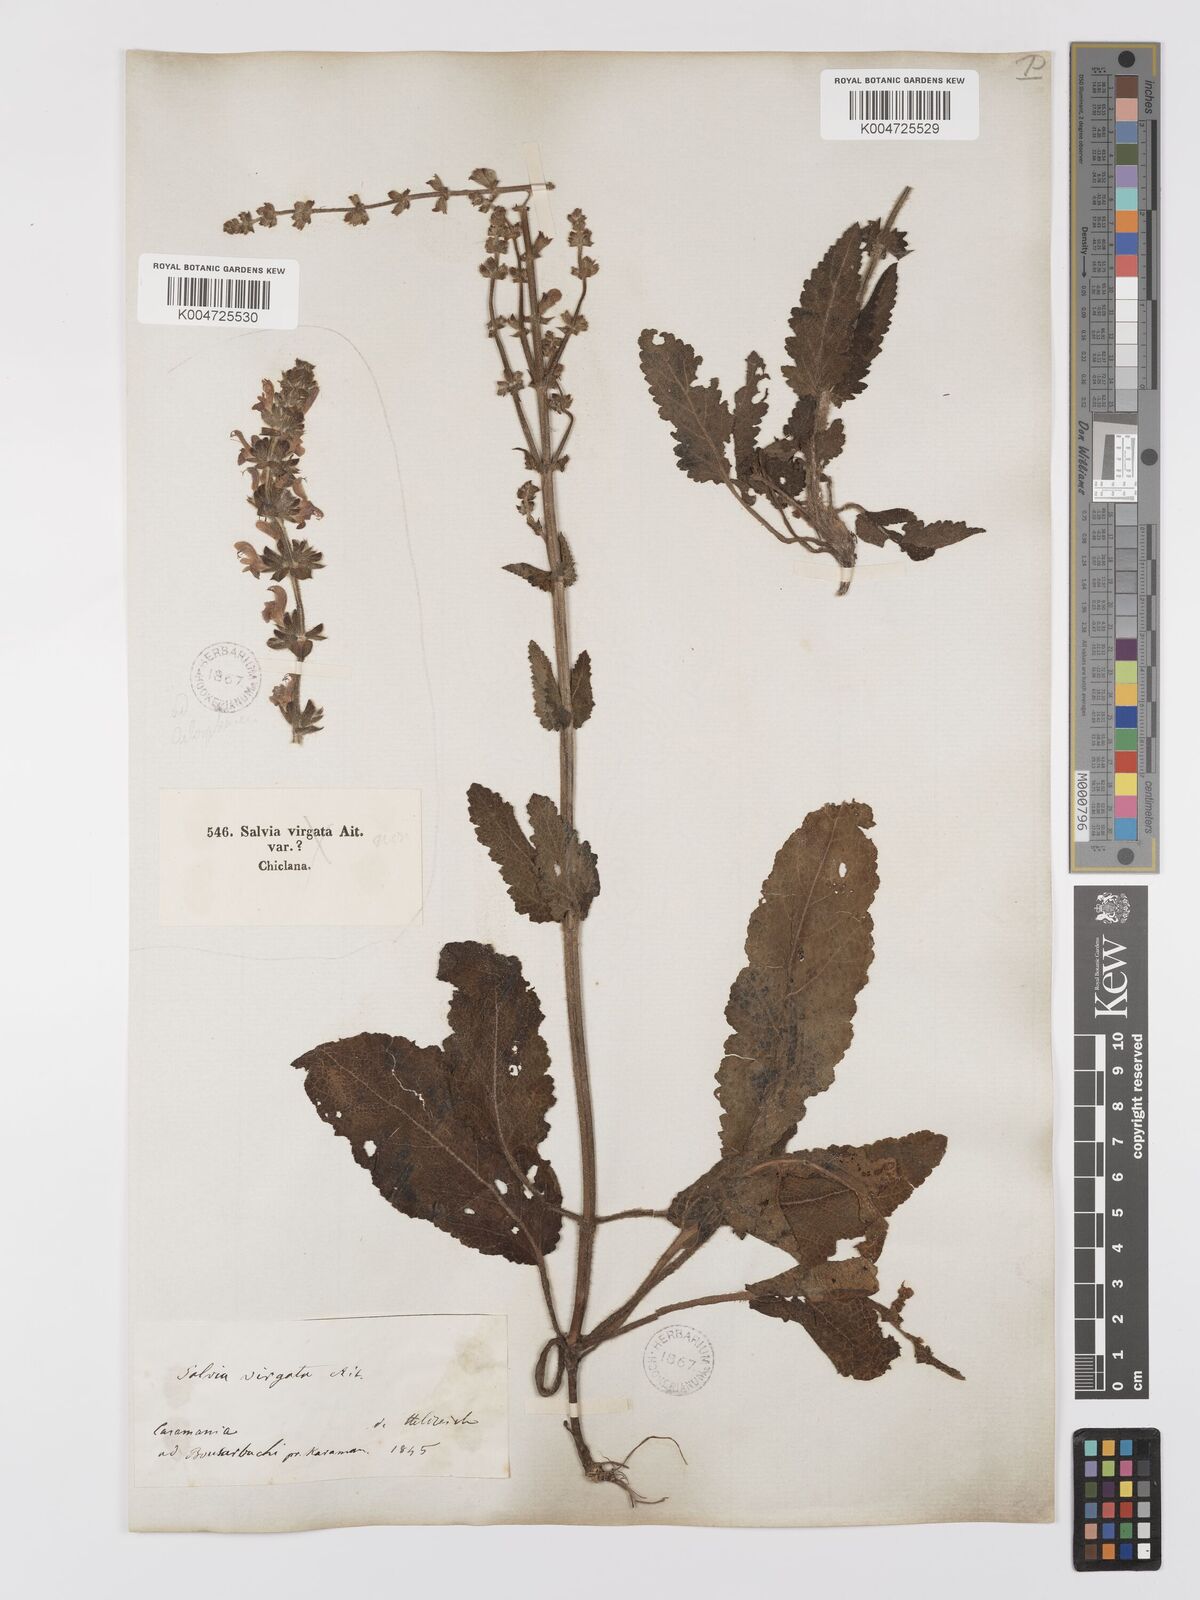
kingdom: Plantae
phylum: Tracheophyta
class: Magnoliopsida
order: Lamiales
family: Lamiaceae
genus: Salvia
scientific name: Salvia
